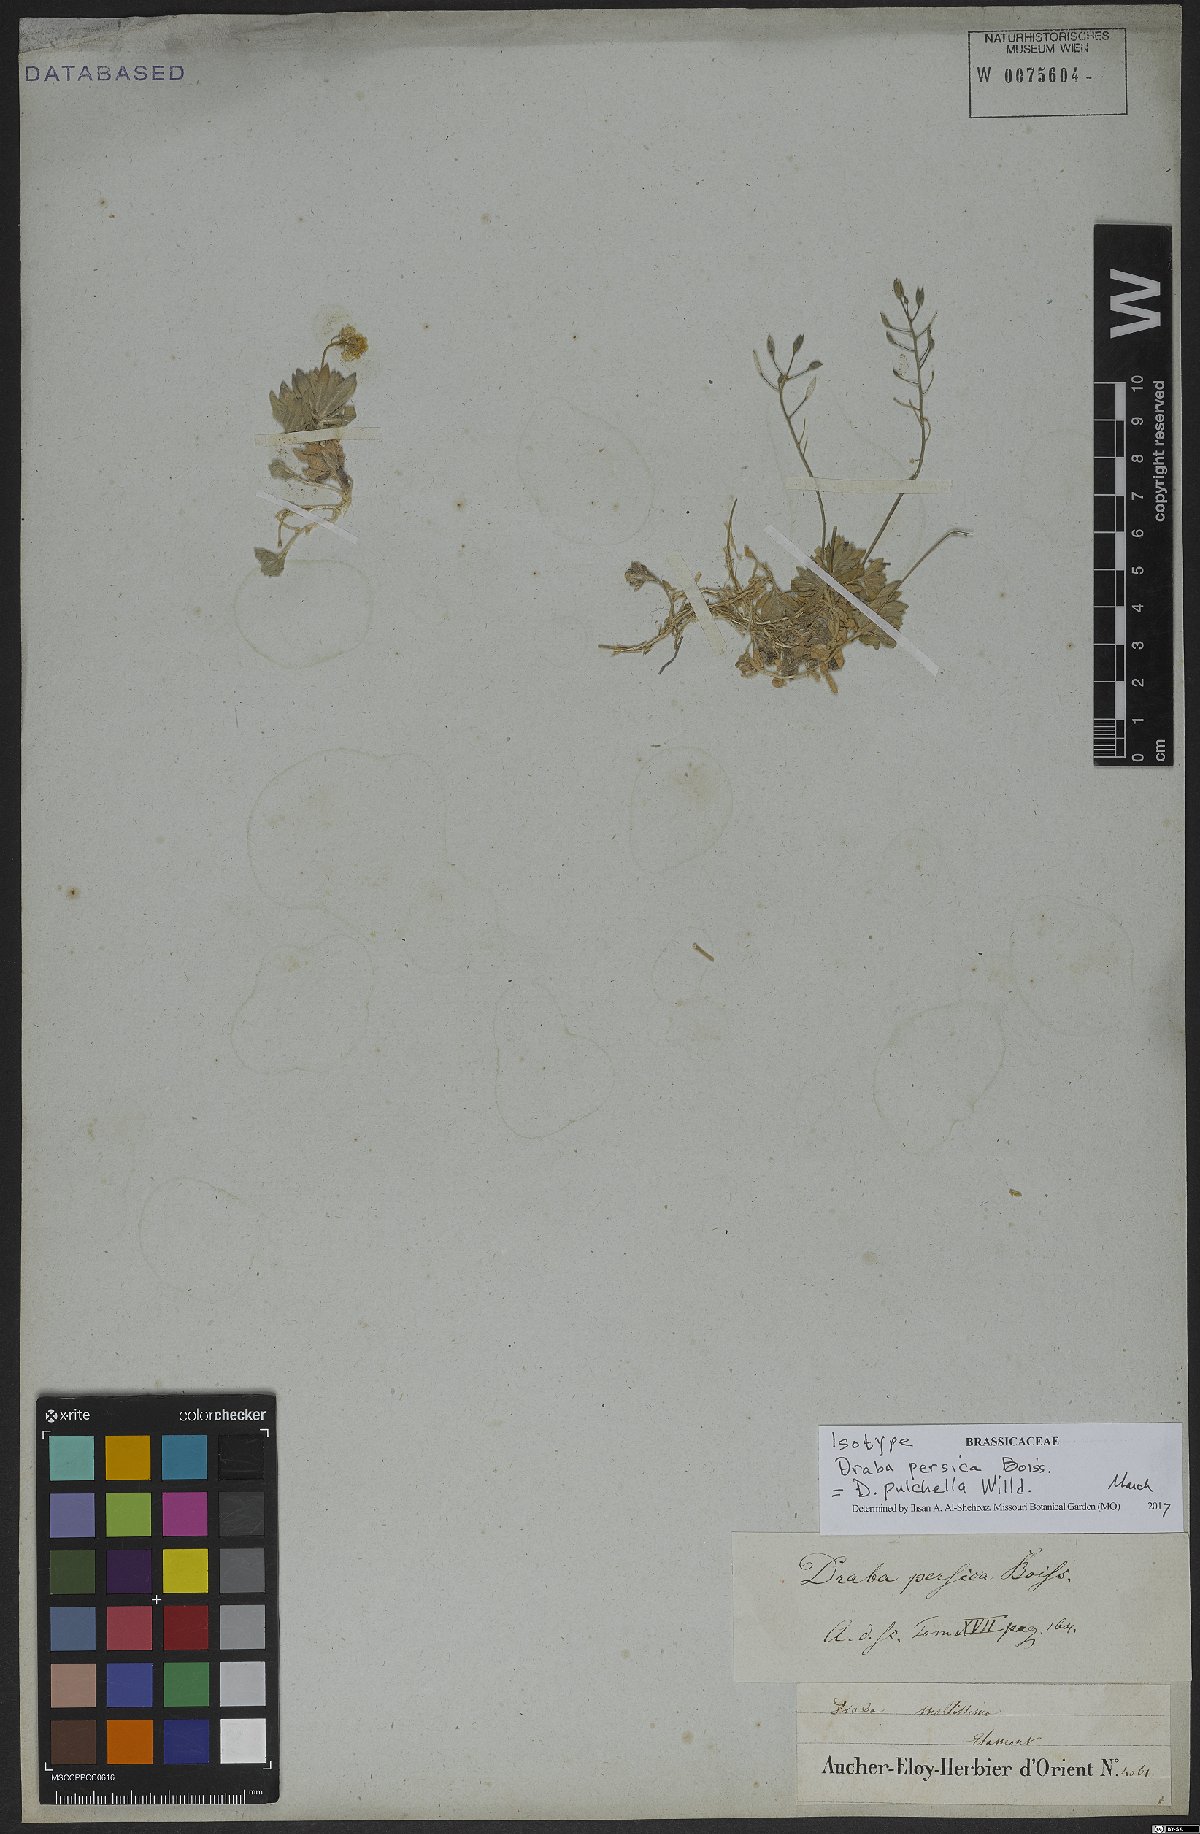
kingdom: Plantae
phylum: Tracheophyta
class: Magnoliopsida
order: Brassicales
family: Brassicaceae
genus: Draba
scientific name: Draba pulchella
